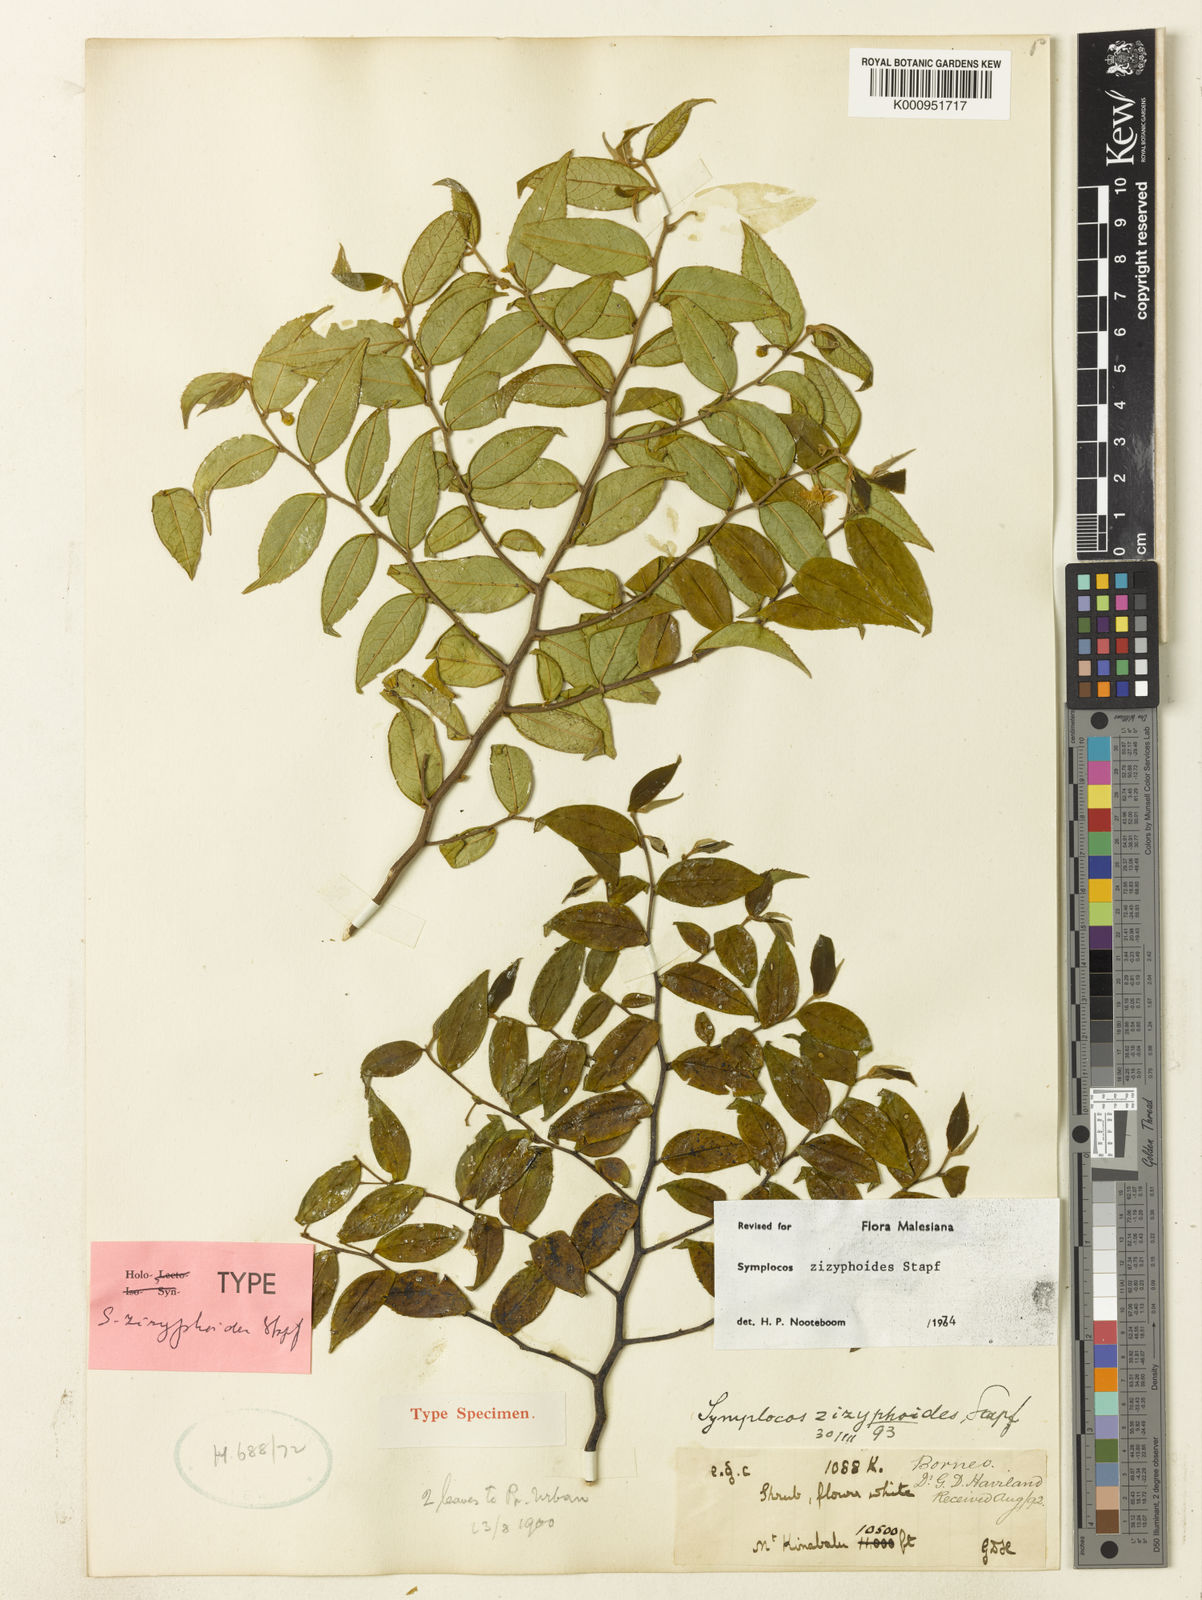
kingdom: Plantae
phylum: Tracheophyta
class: Magnoliopsida
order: Ericales
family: Symplocaceae
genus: Symplocos
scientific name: Symplocos zizyphoides
